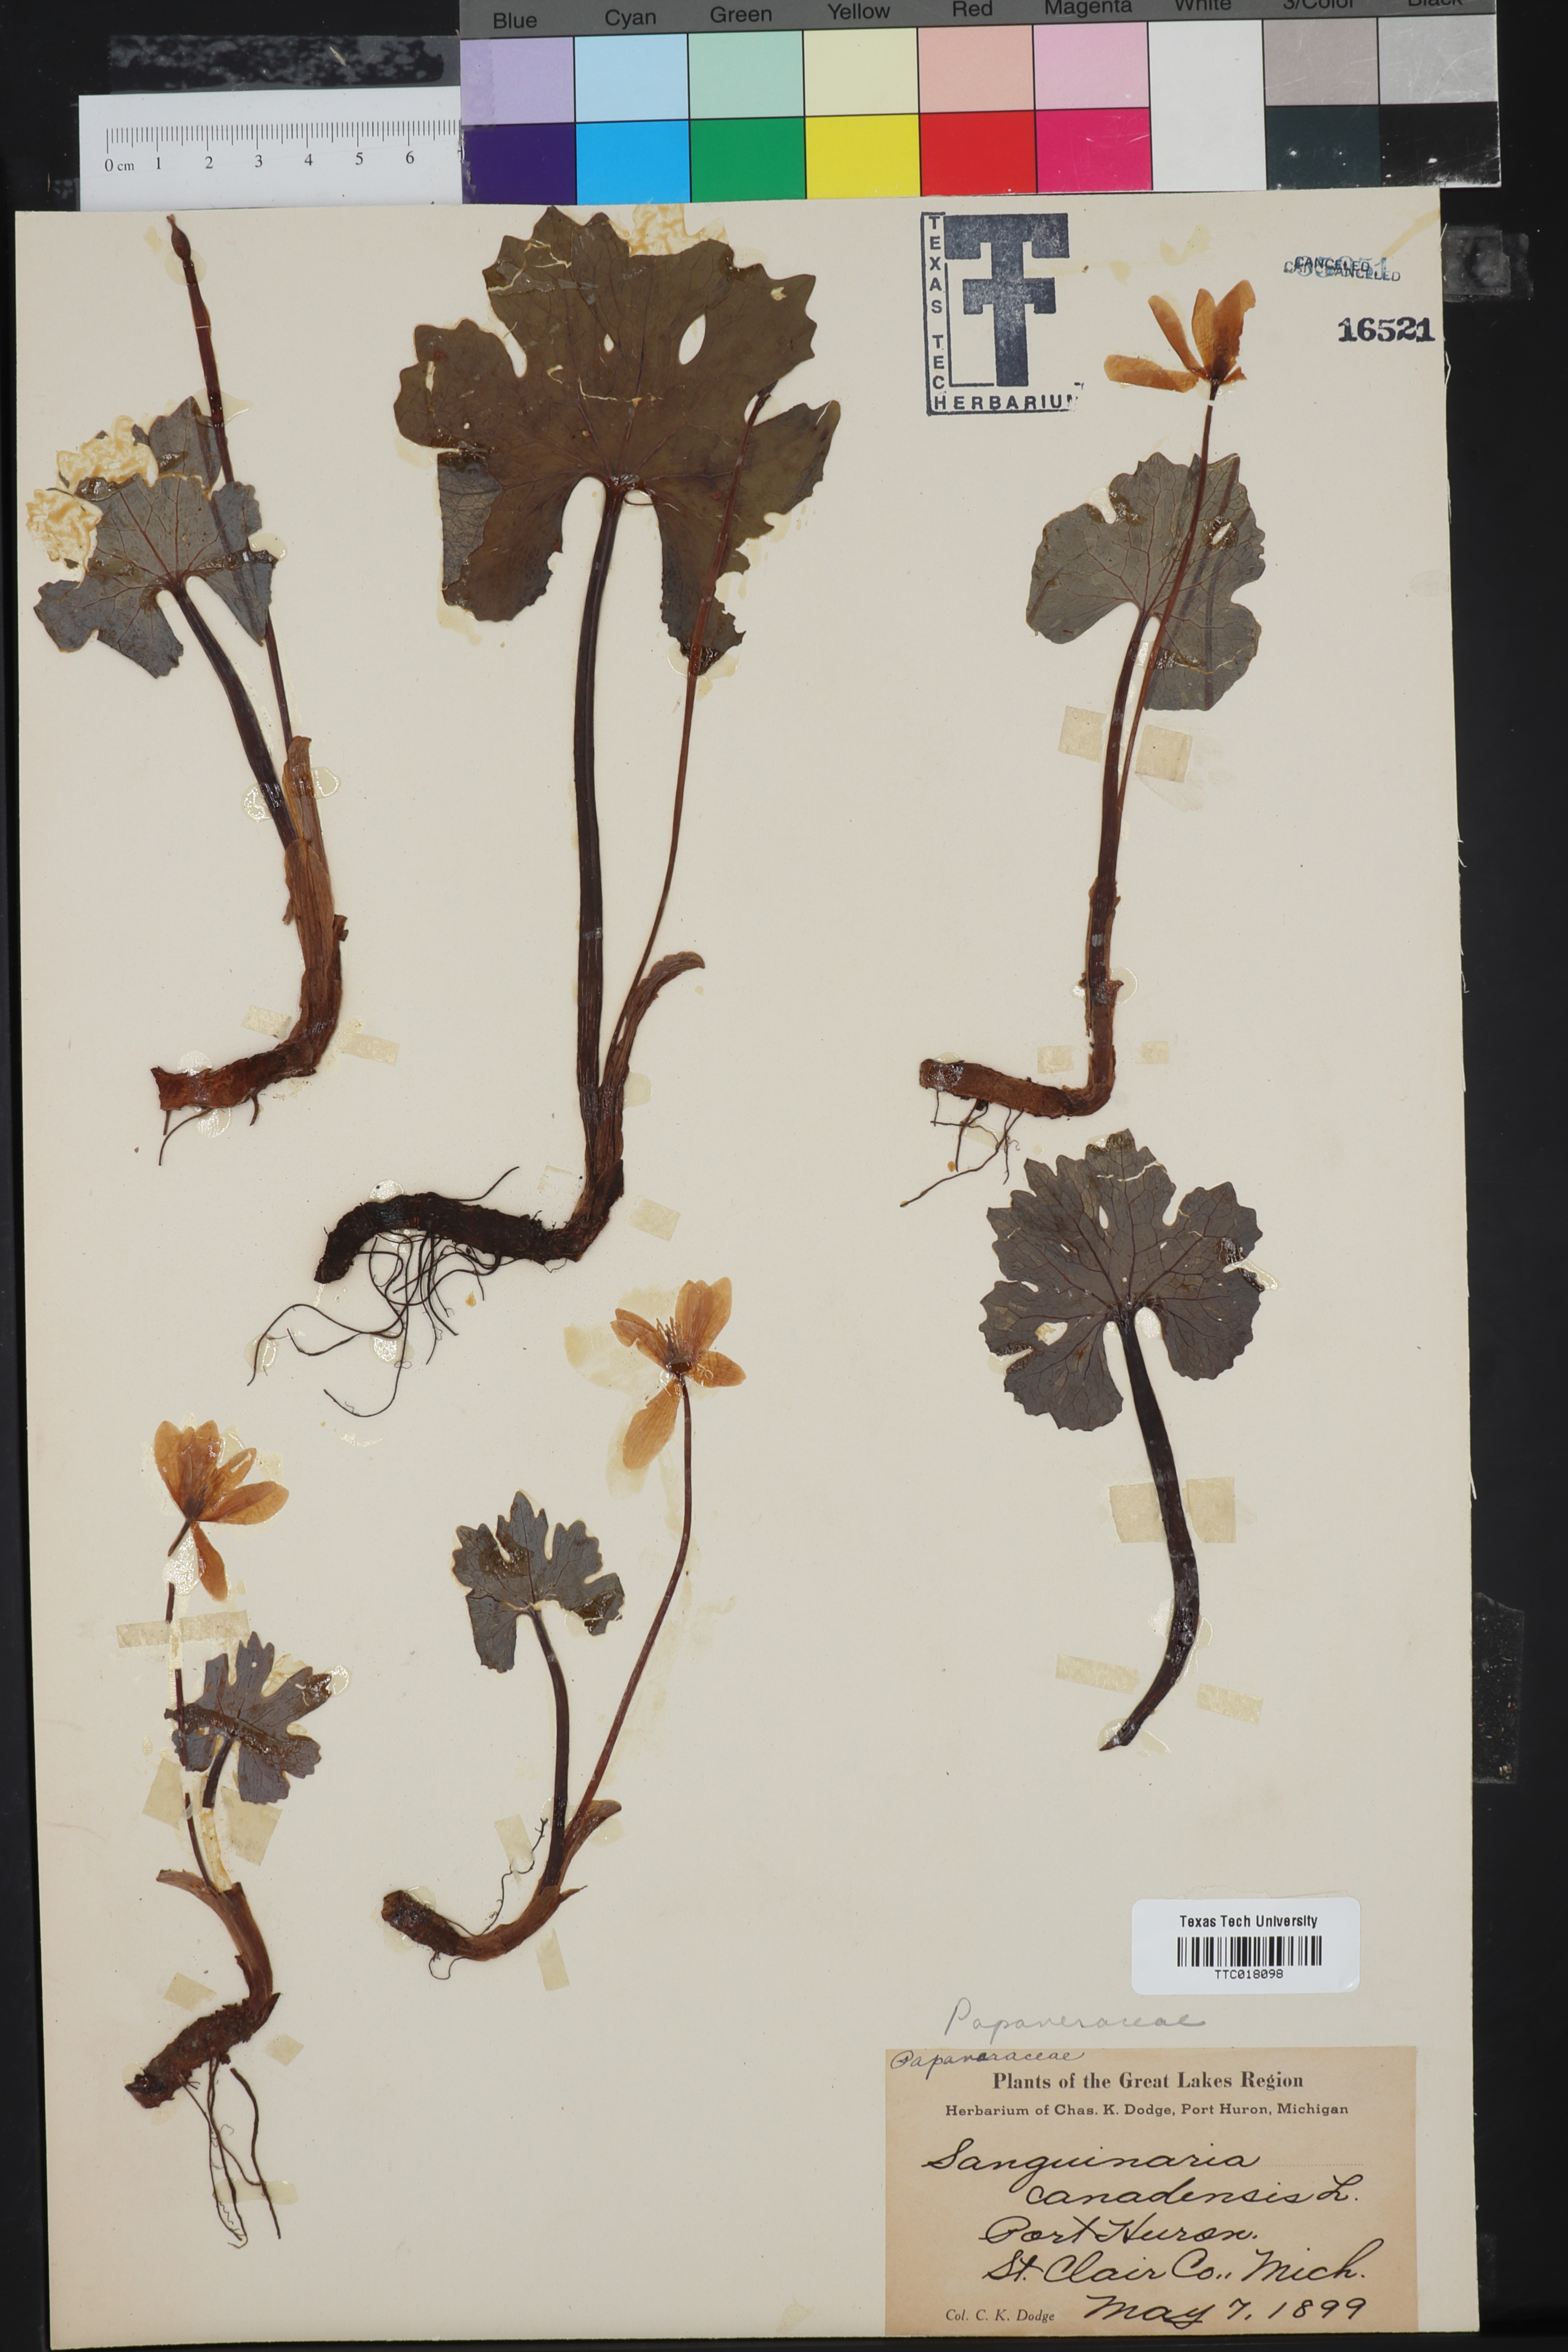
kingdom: Plantae
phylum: Tracheophyta
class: Magnoliopsida
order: Ranunculales
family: Papaveraceae
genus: Sanguinaria
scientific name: Sanguinaria canadensis
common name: Bloodroot
